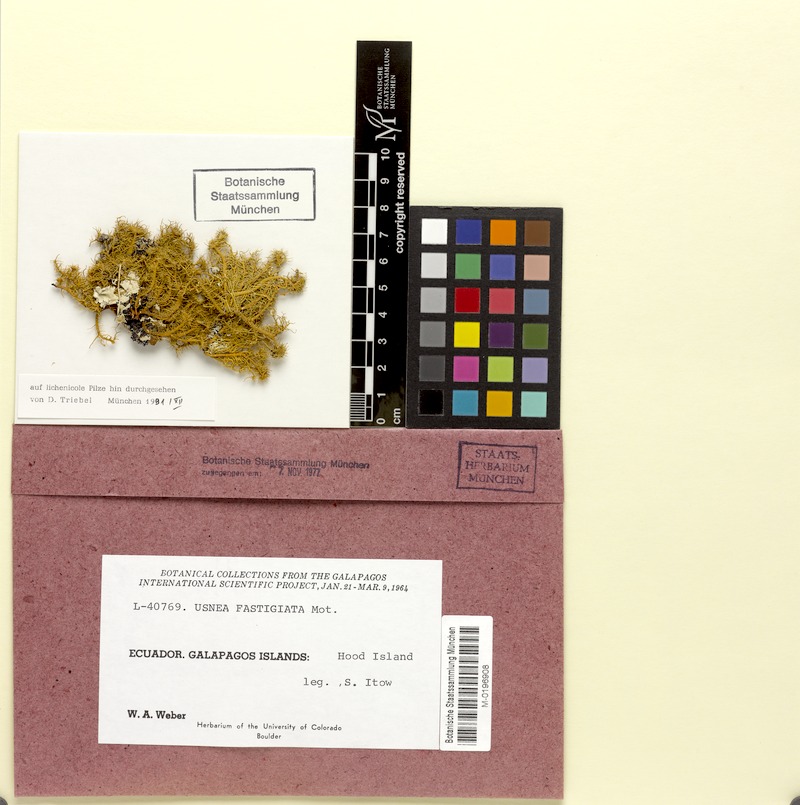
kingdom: Fungi
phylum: Ascomycota
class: Lecanoromycetes
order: Lecanorales
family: Parmeliaceae
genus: Usnea
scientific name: Usnea fastigiata
